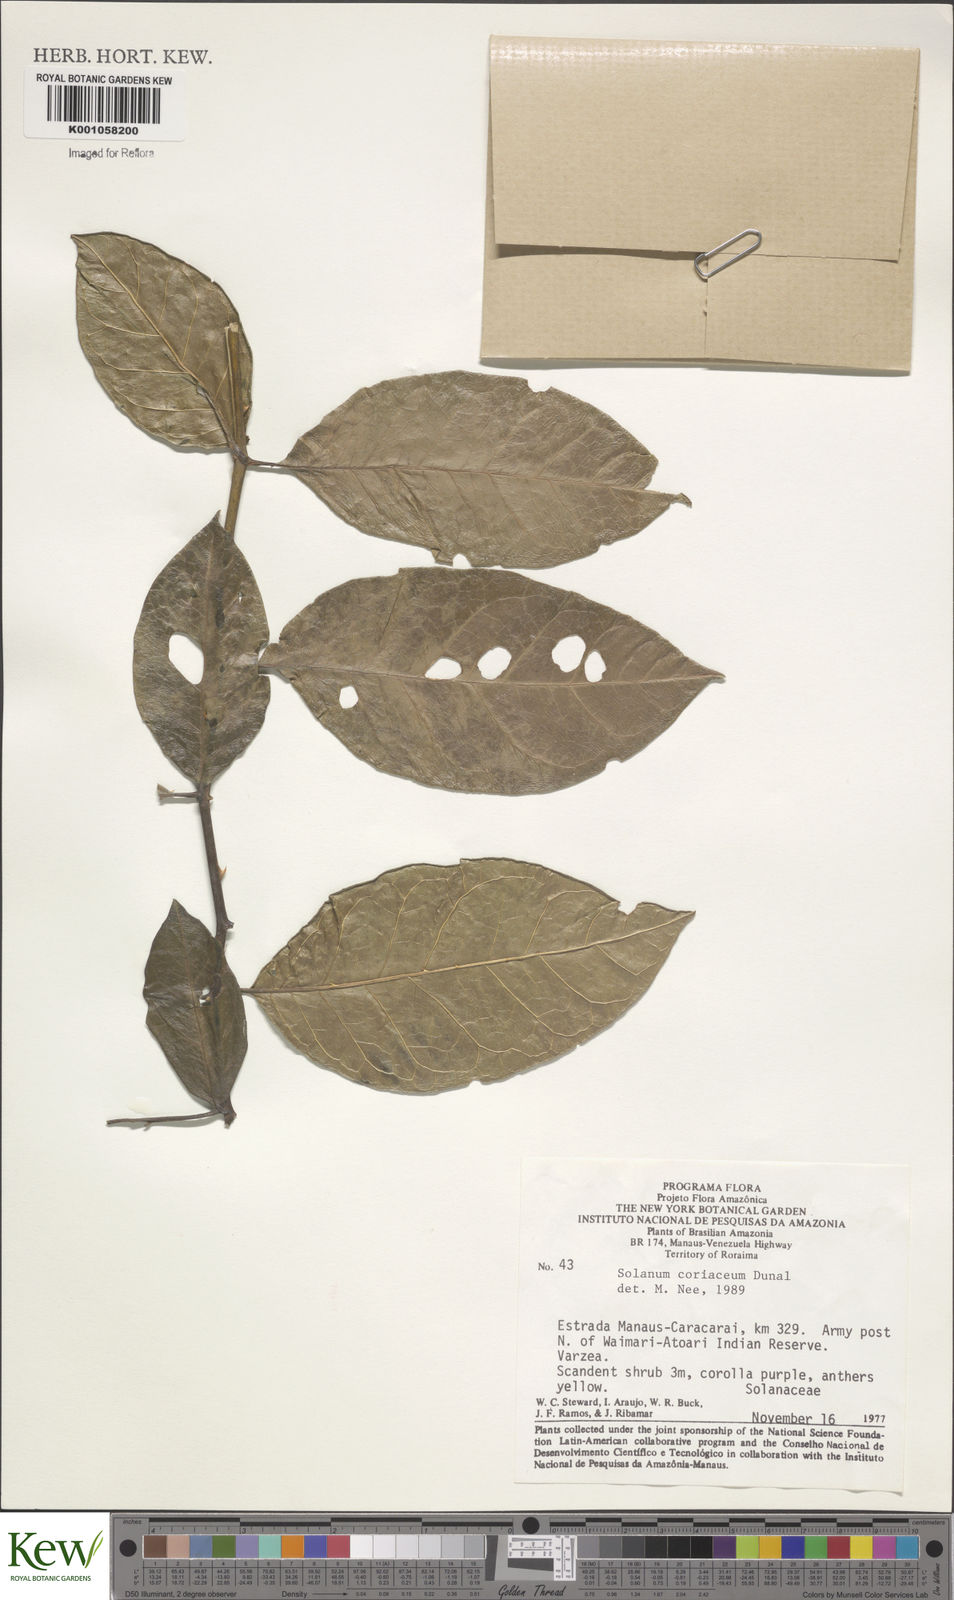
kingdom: Plantae
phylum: Tracheophyta
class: Magnoliopsida
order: Solanales
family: Solanaceae
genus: Solanum
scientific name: Solanum coriaceum
